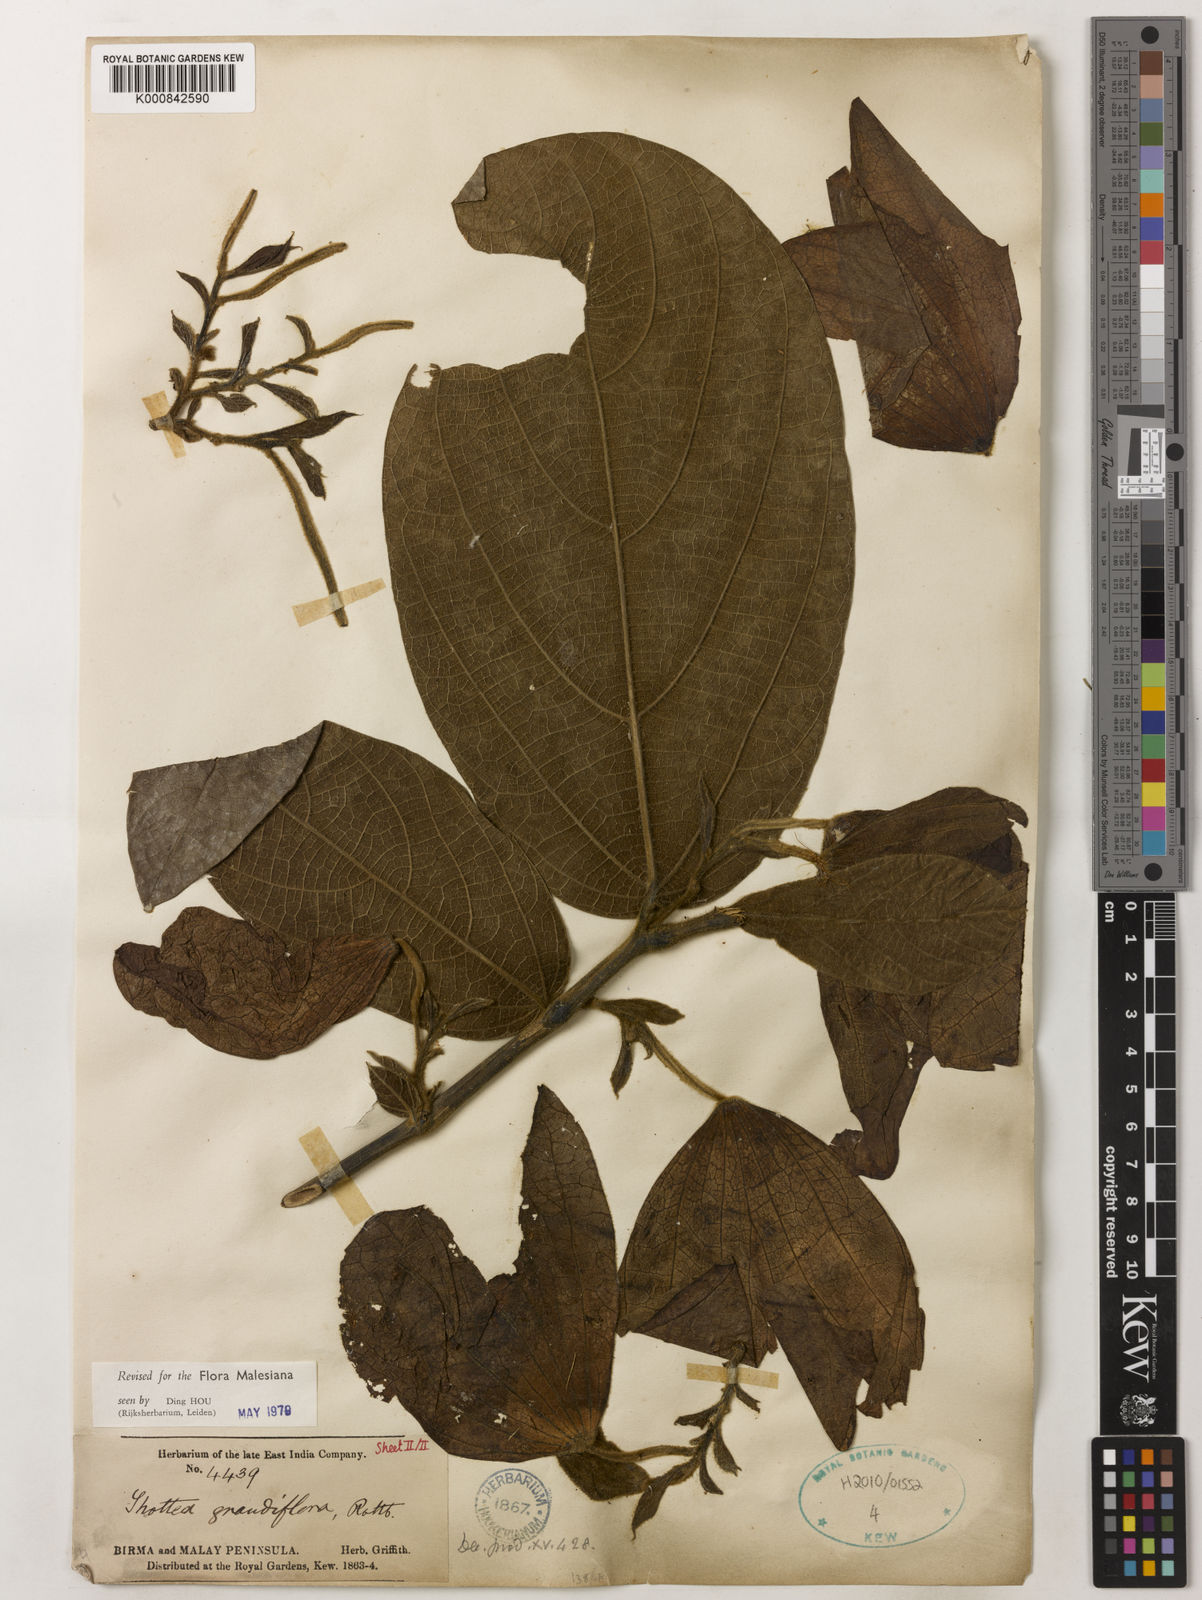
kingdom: Plantae
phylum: Tracheophyta
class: Magnoliopsida
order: Piperales
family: Aristolochiaceae
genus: Thottea
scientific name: Thottea grandiflora
